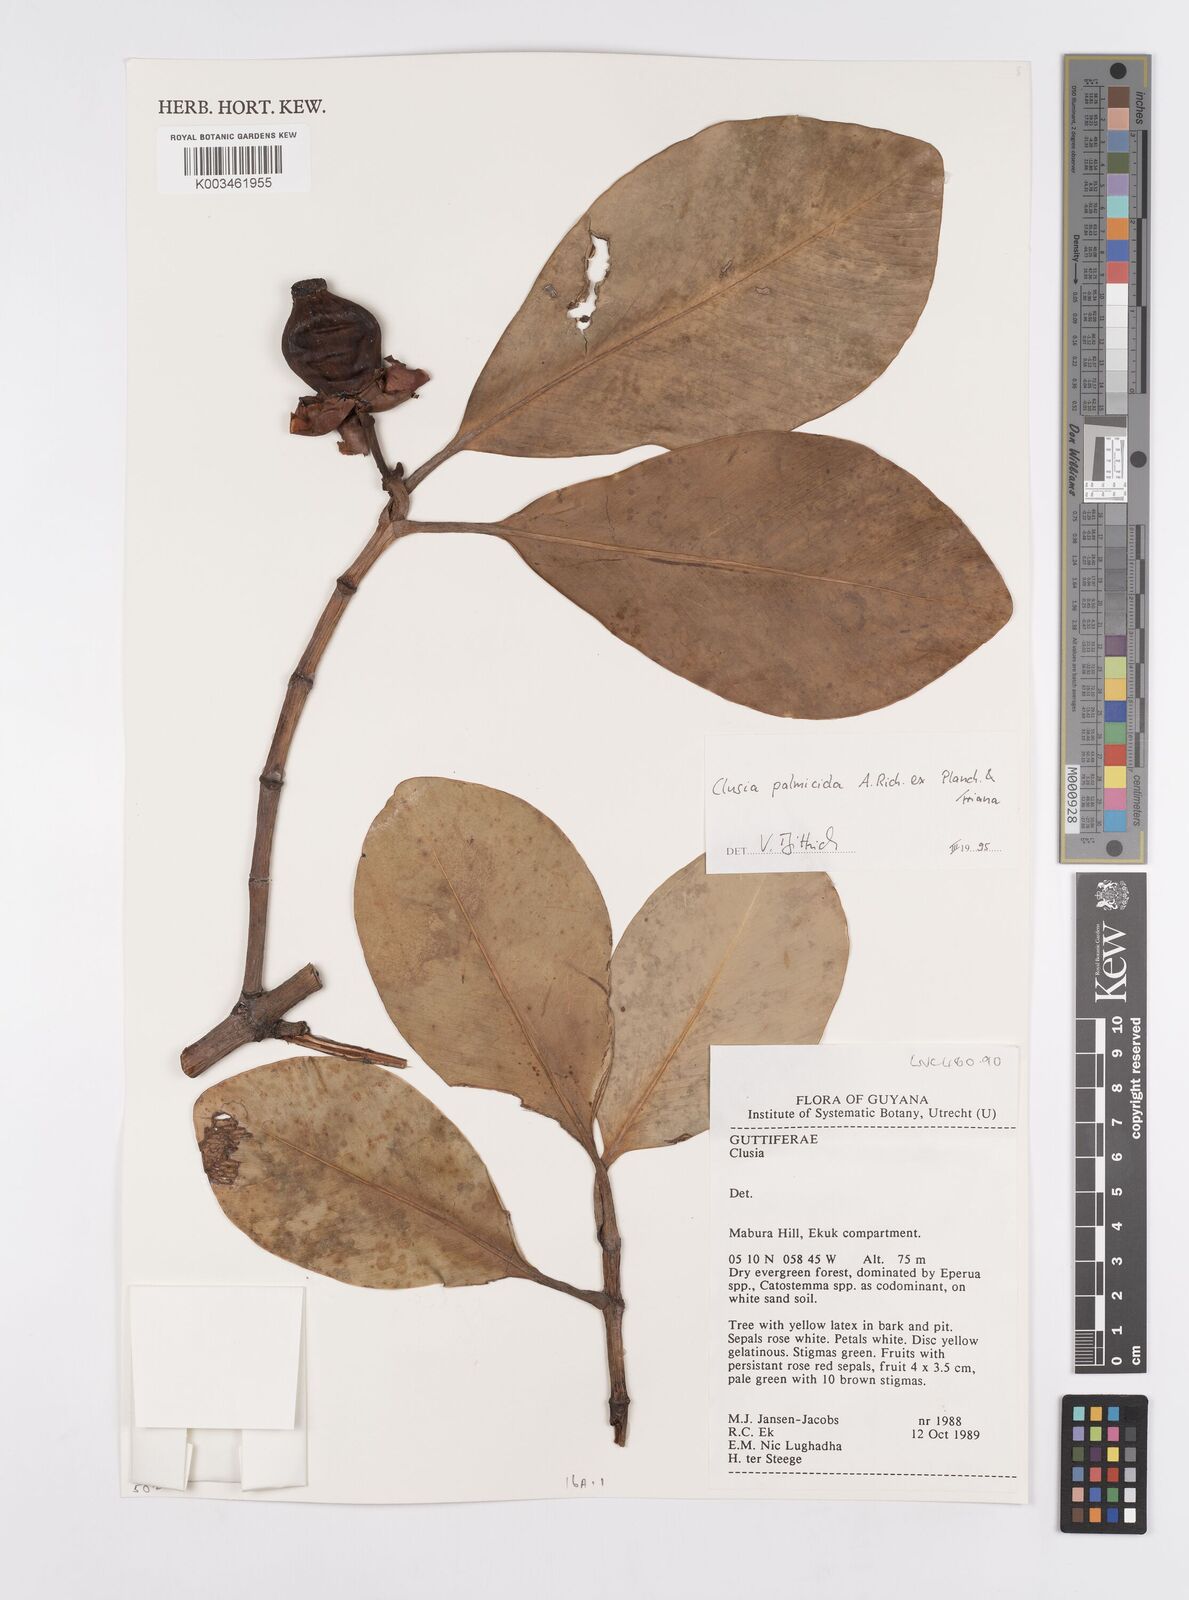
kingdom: Plantae
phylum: Tracheophyta
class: Magnoliopsida
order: Malpighiales
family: Clusiaceae
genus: Clusia
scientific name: Clusia palmicida
